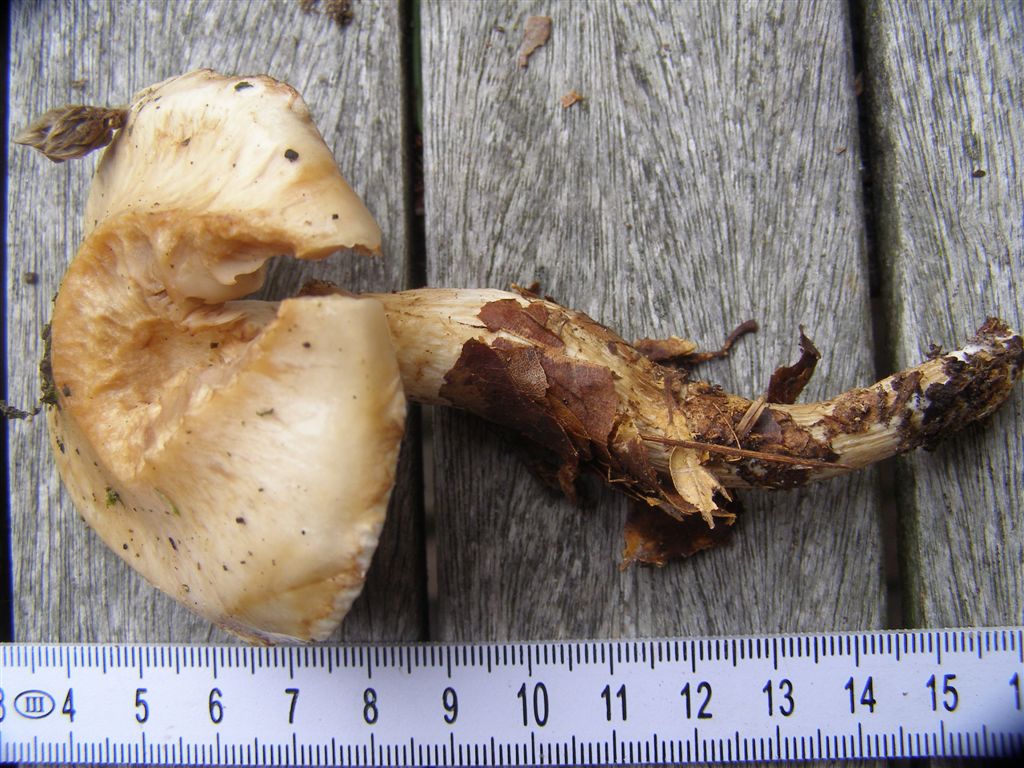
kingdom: Fungi
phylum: Basidiomycota
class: Agaricomycetes
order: Agaricales
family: Hymenogastraceae
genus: Hebeloma
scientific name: Hebeloma radicosum
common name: pælerods-tåreblad
